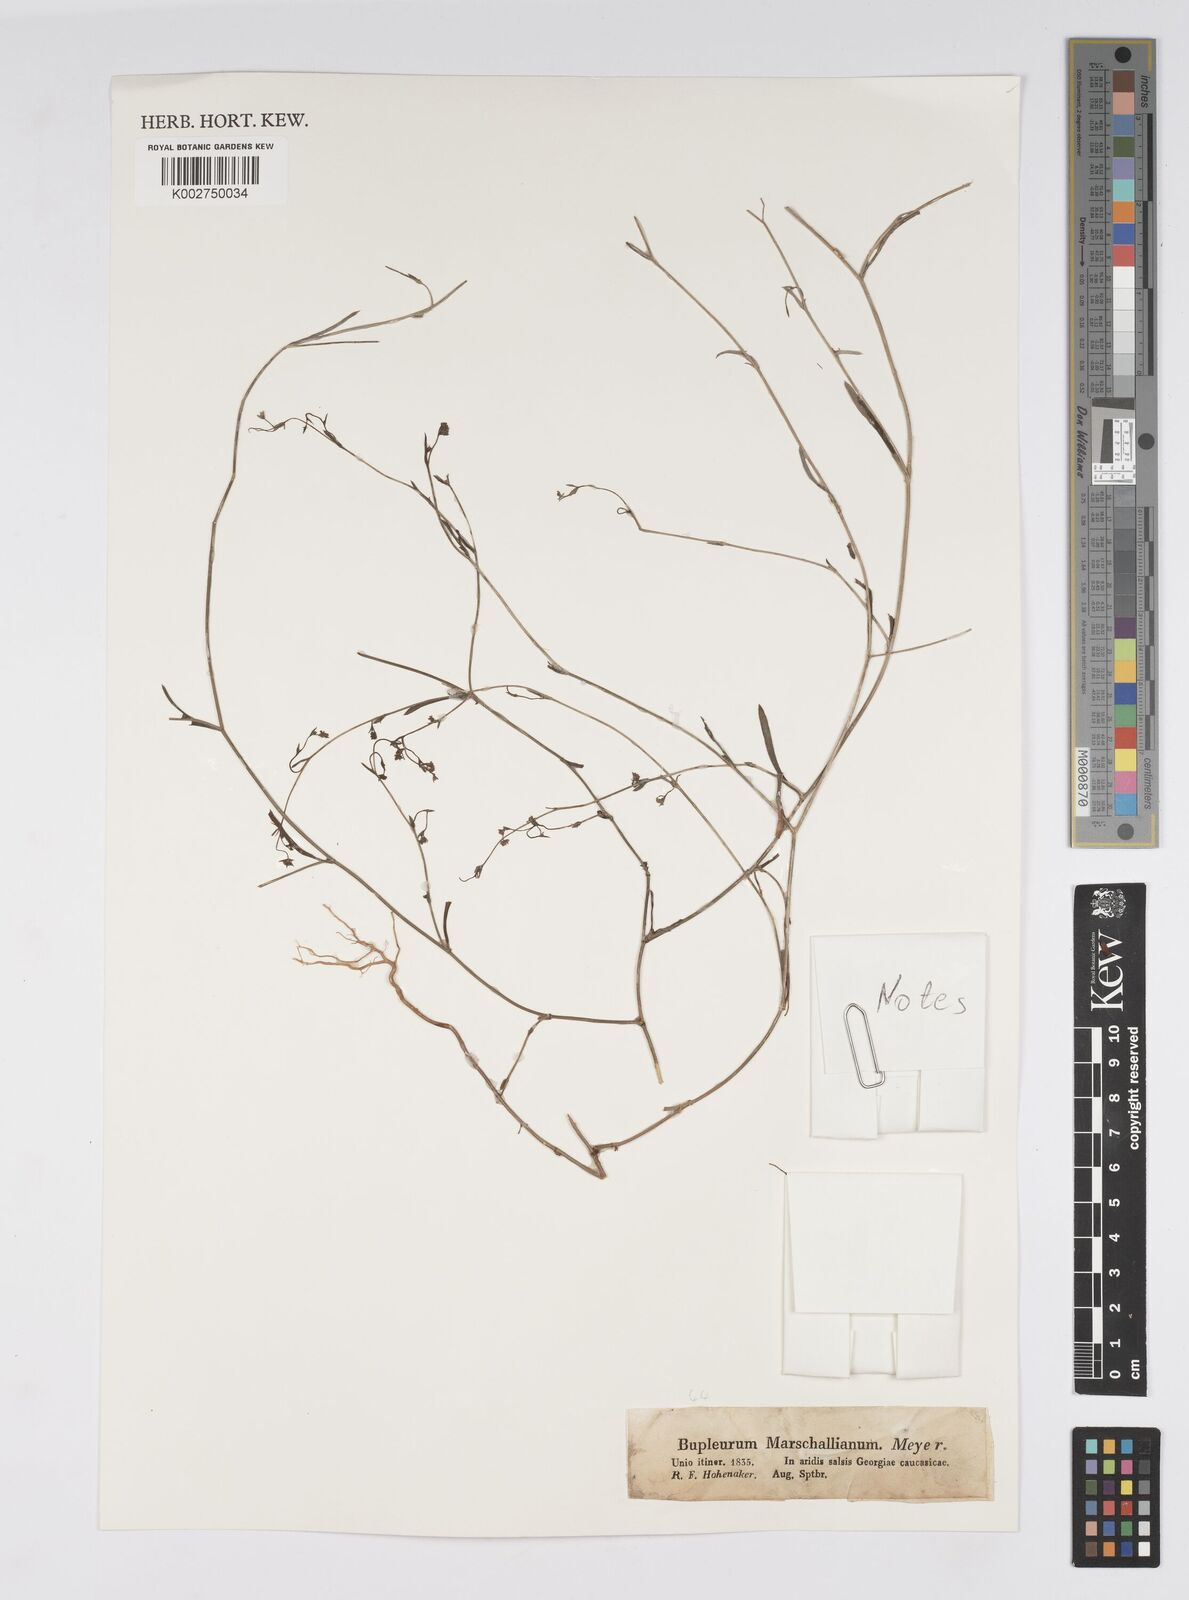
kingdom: Plantae
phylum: Tracheophyta
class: Magnoliopsida
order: Apiales
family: Apiaceae
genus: Bupleurum
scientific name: Bupleurum marschallianum
